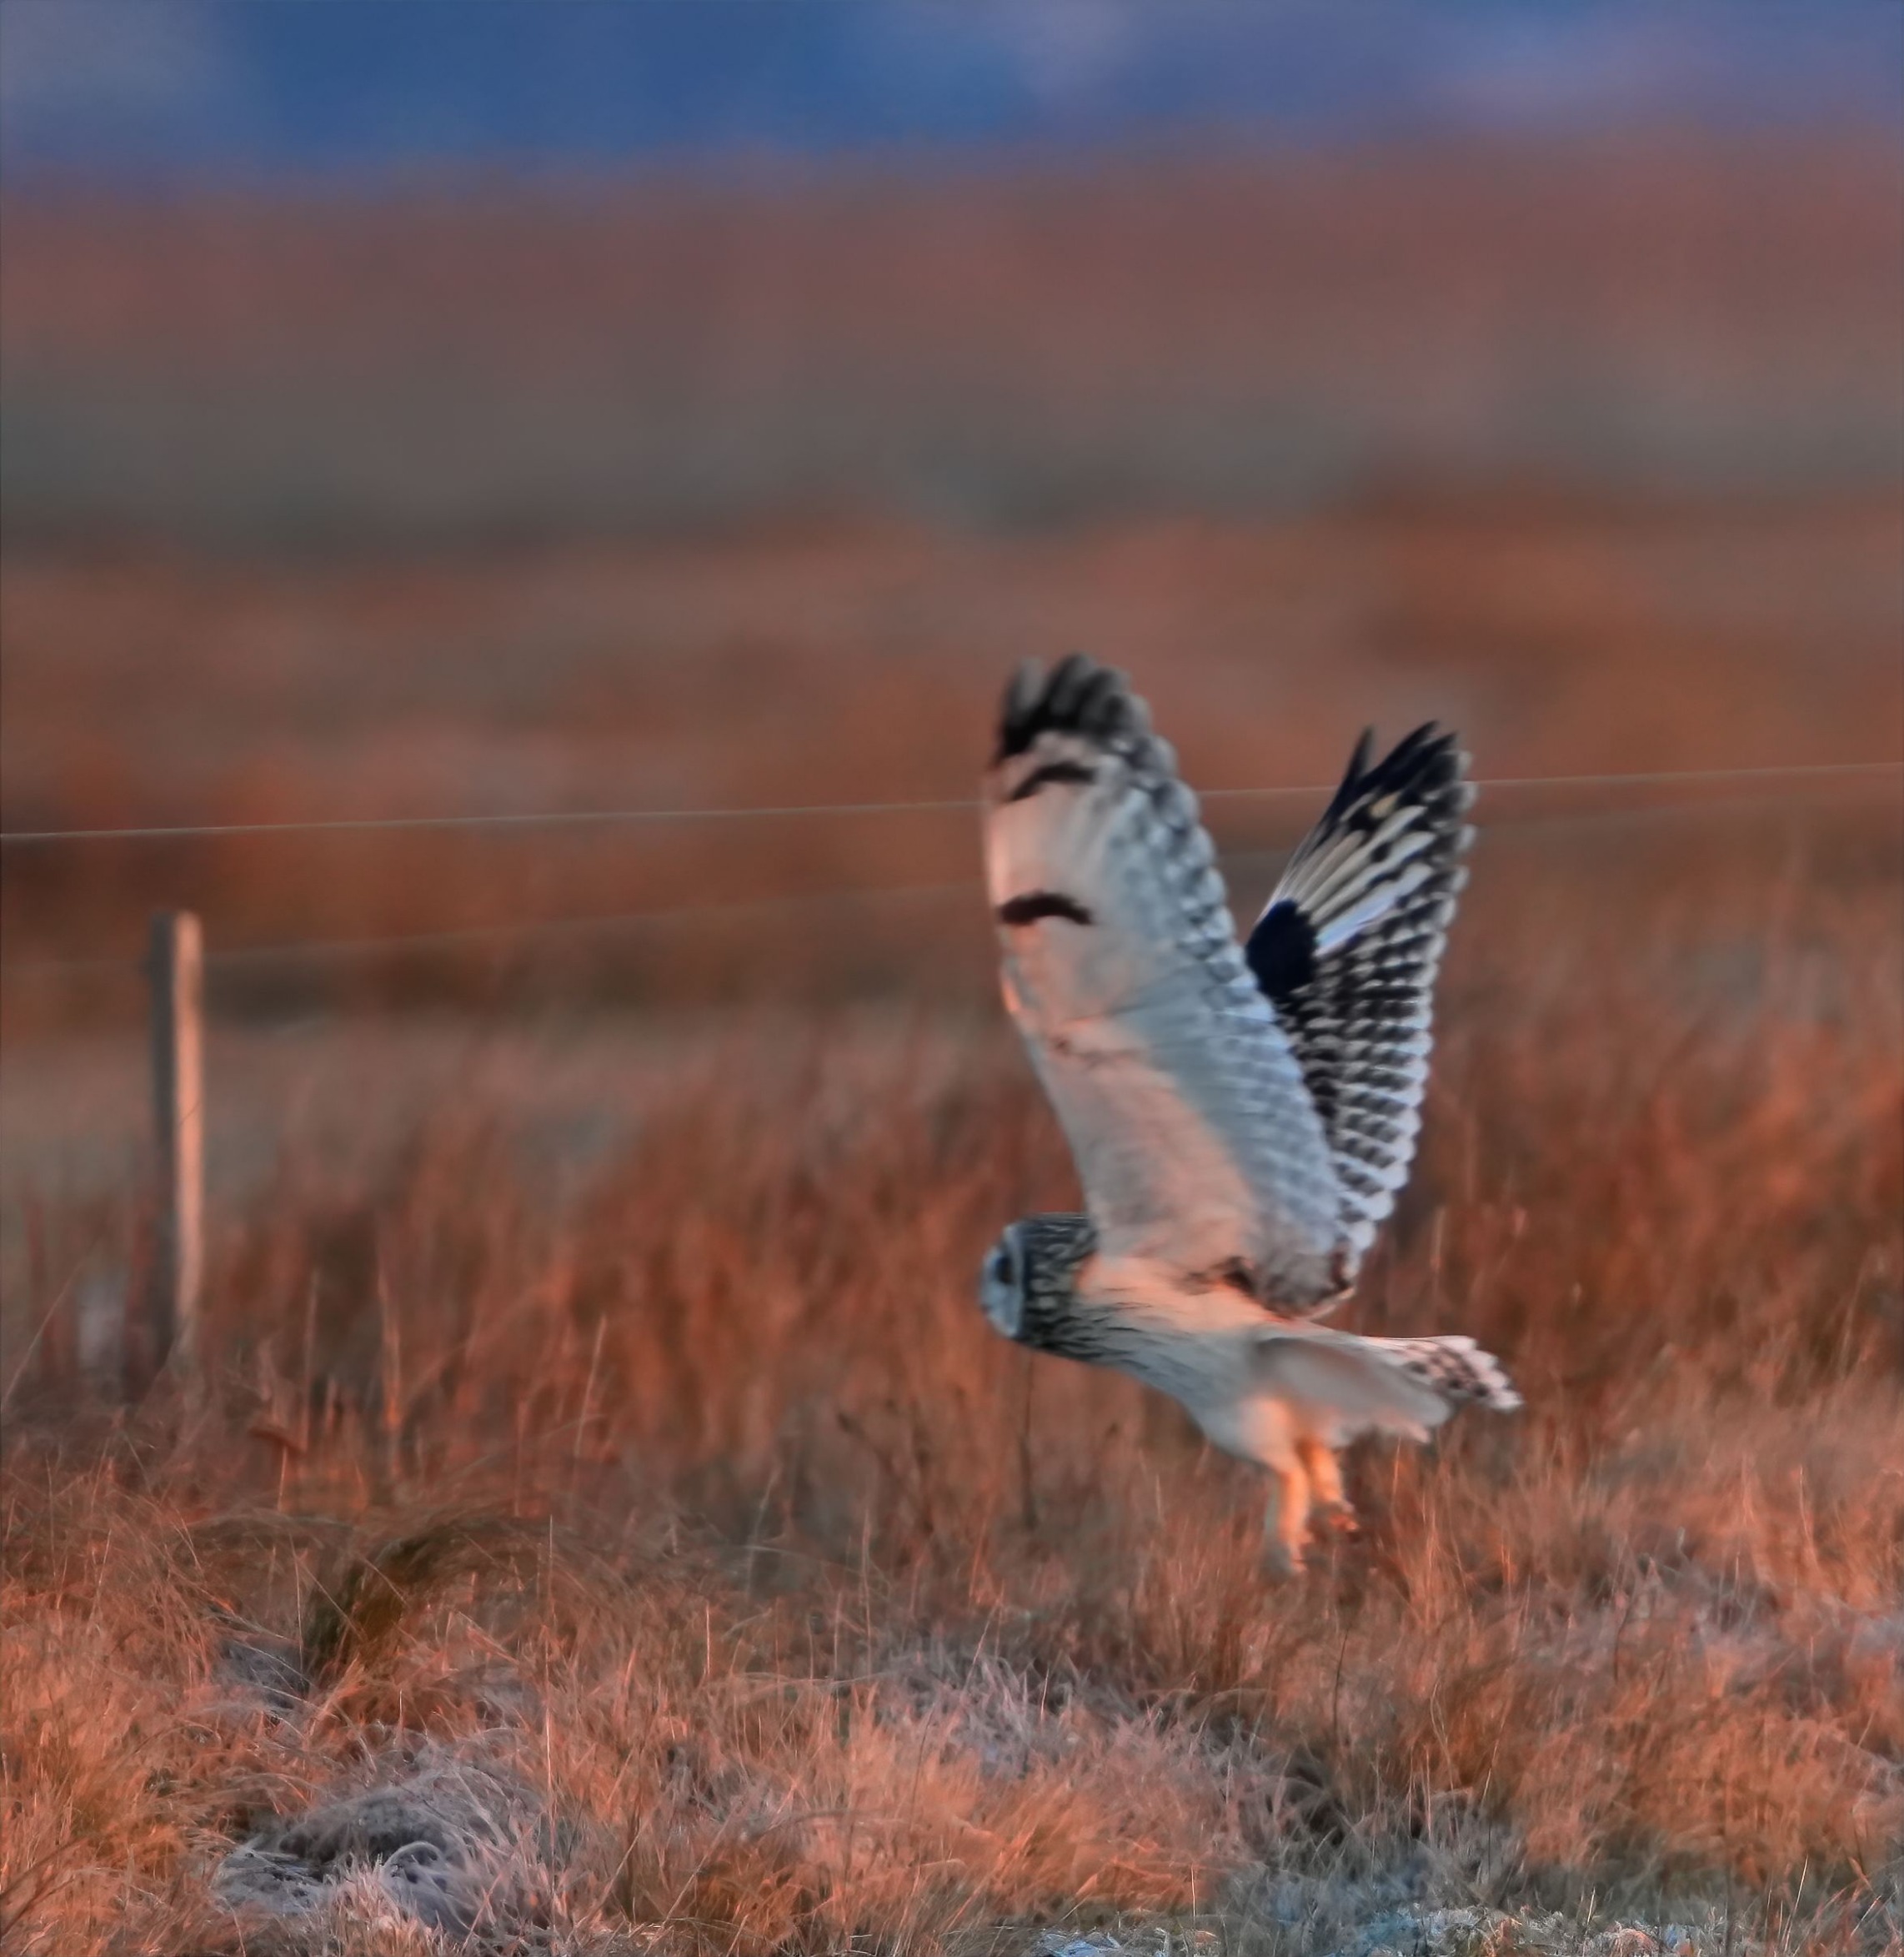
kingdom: Animalia
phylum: Chordata
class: Aves
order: Strigiformes
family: Strigidae
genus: Asio
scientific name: Asio flammeus
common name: Mosehornugle
